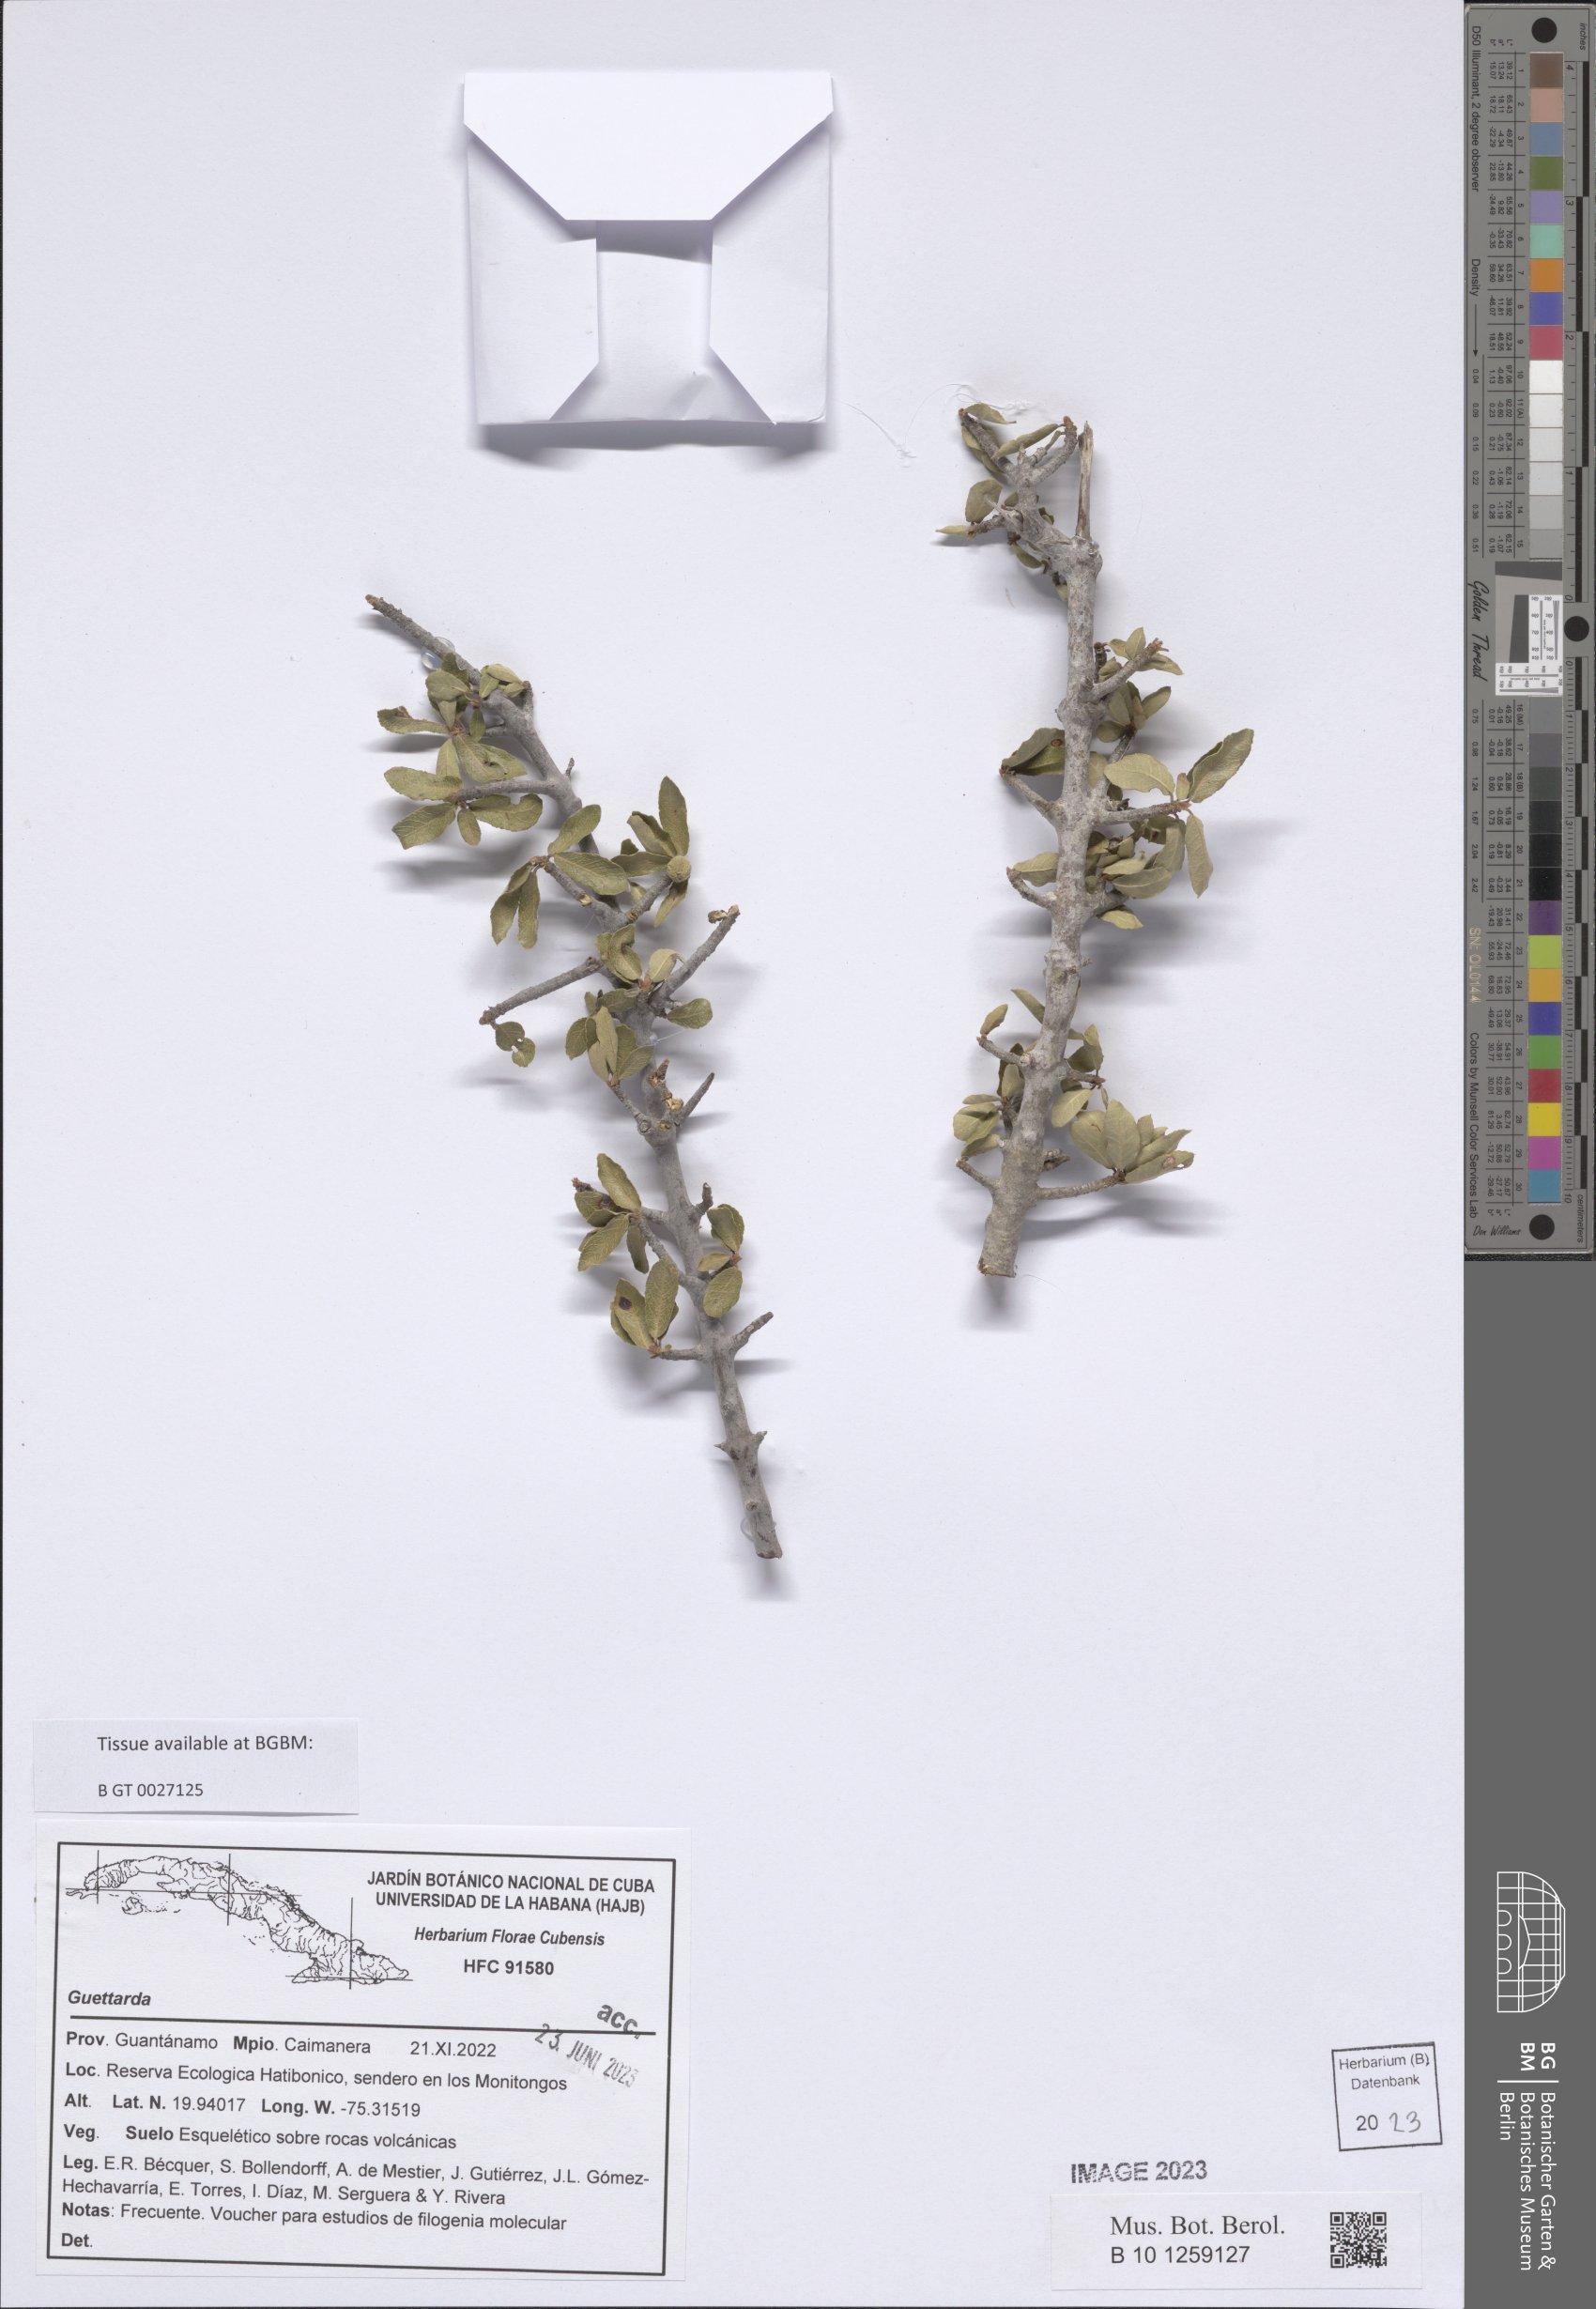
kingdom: Plantae
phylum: Tracheophyta
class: Magnoliopsida
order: Gentianales
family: Rubiaceae
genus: Guettarda
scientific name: Guettarda
